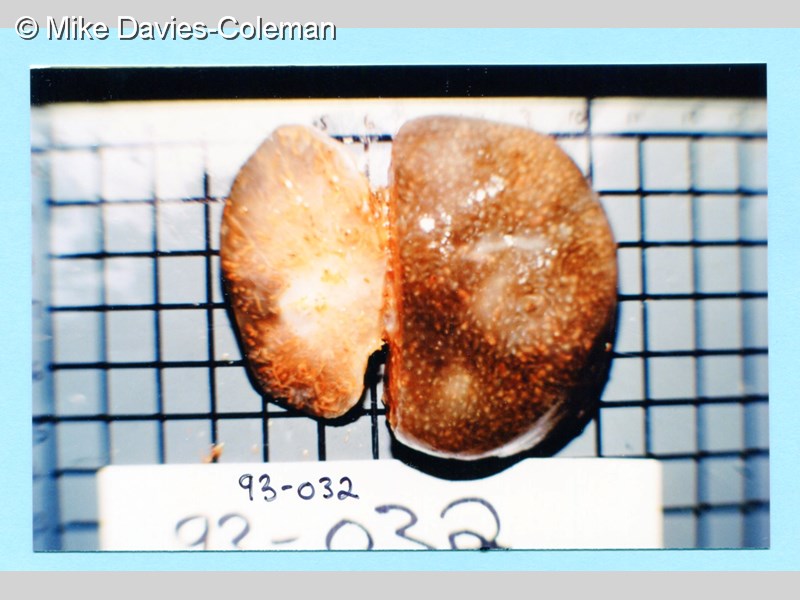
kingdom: Animalia
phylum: Chordata
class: Ascidiacea
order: Aplousobranchia
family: Pseudodistomidae
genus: Pseudodistoma
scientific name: Pseudodistoma
